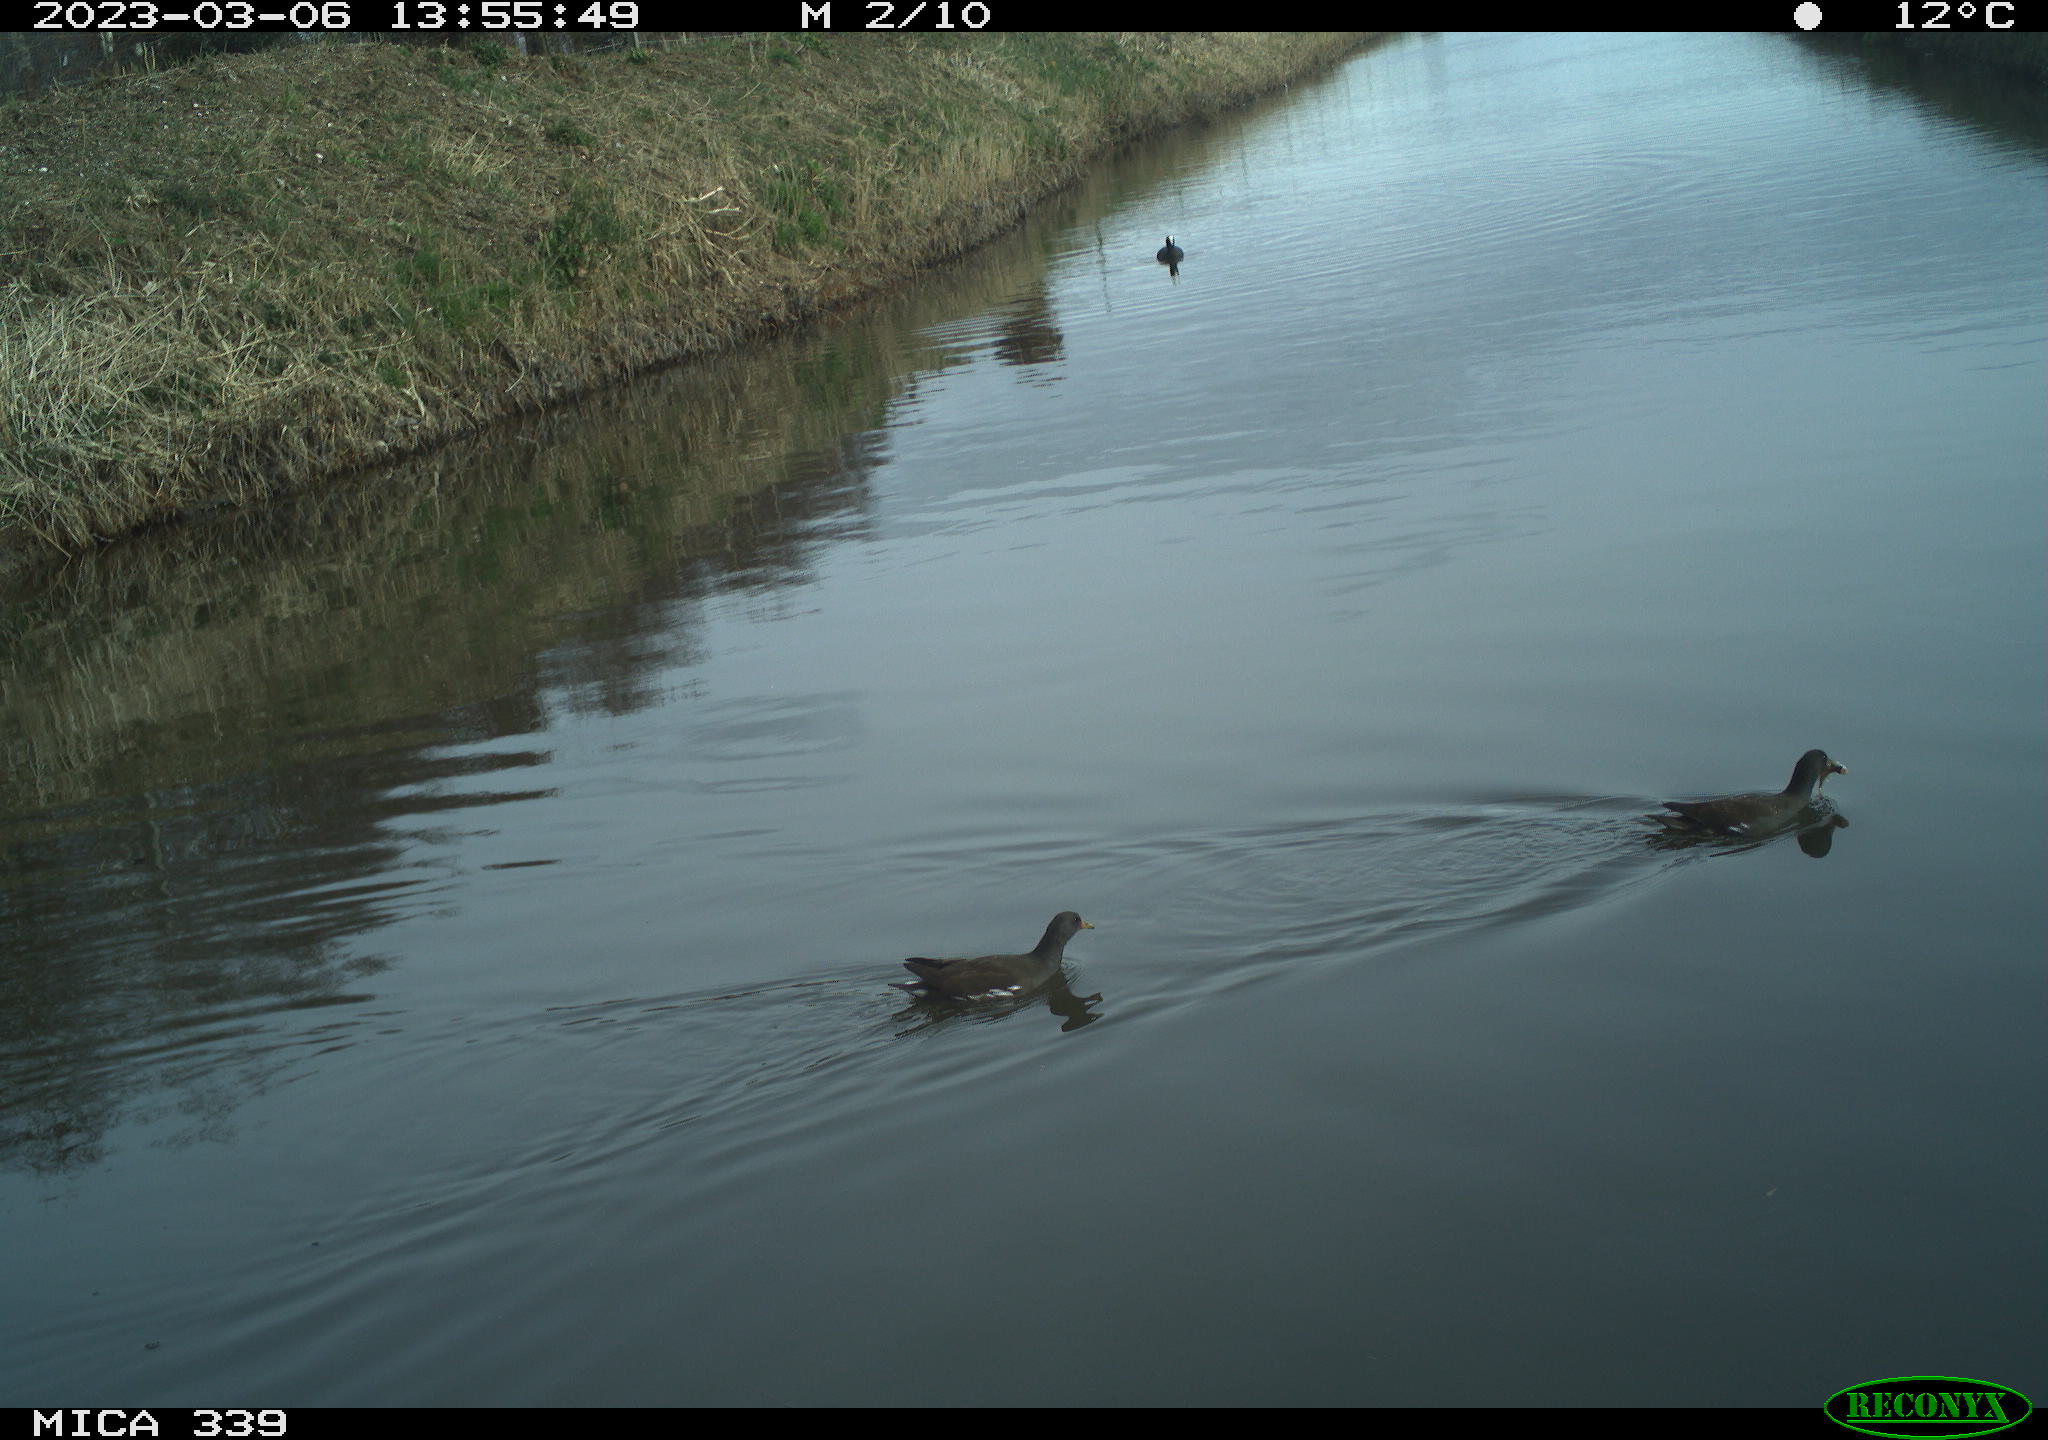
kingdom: Animalia
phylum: Chordata
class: Aves
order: Gruiformes
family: Rallidae
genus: Fulica
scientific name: Fulica atra
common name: Eurasian coot
